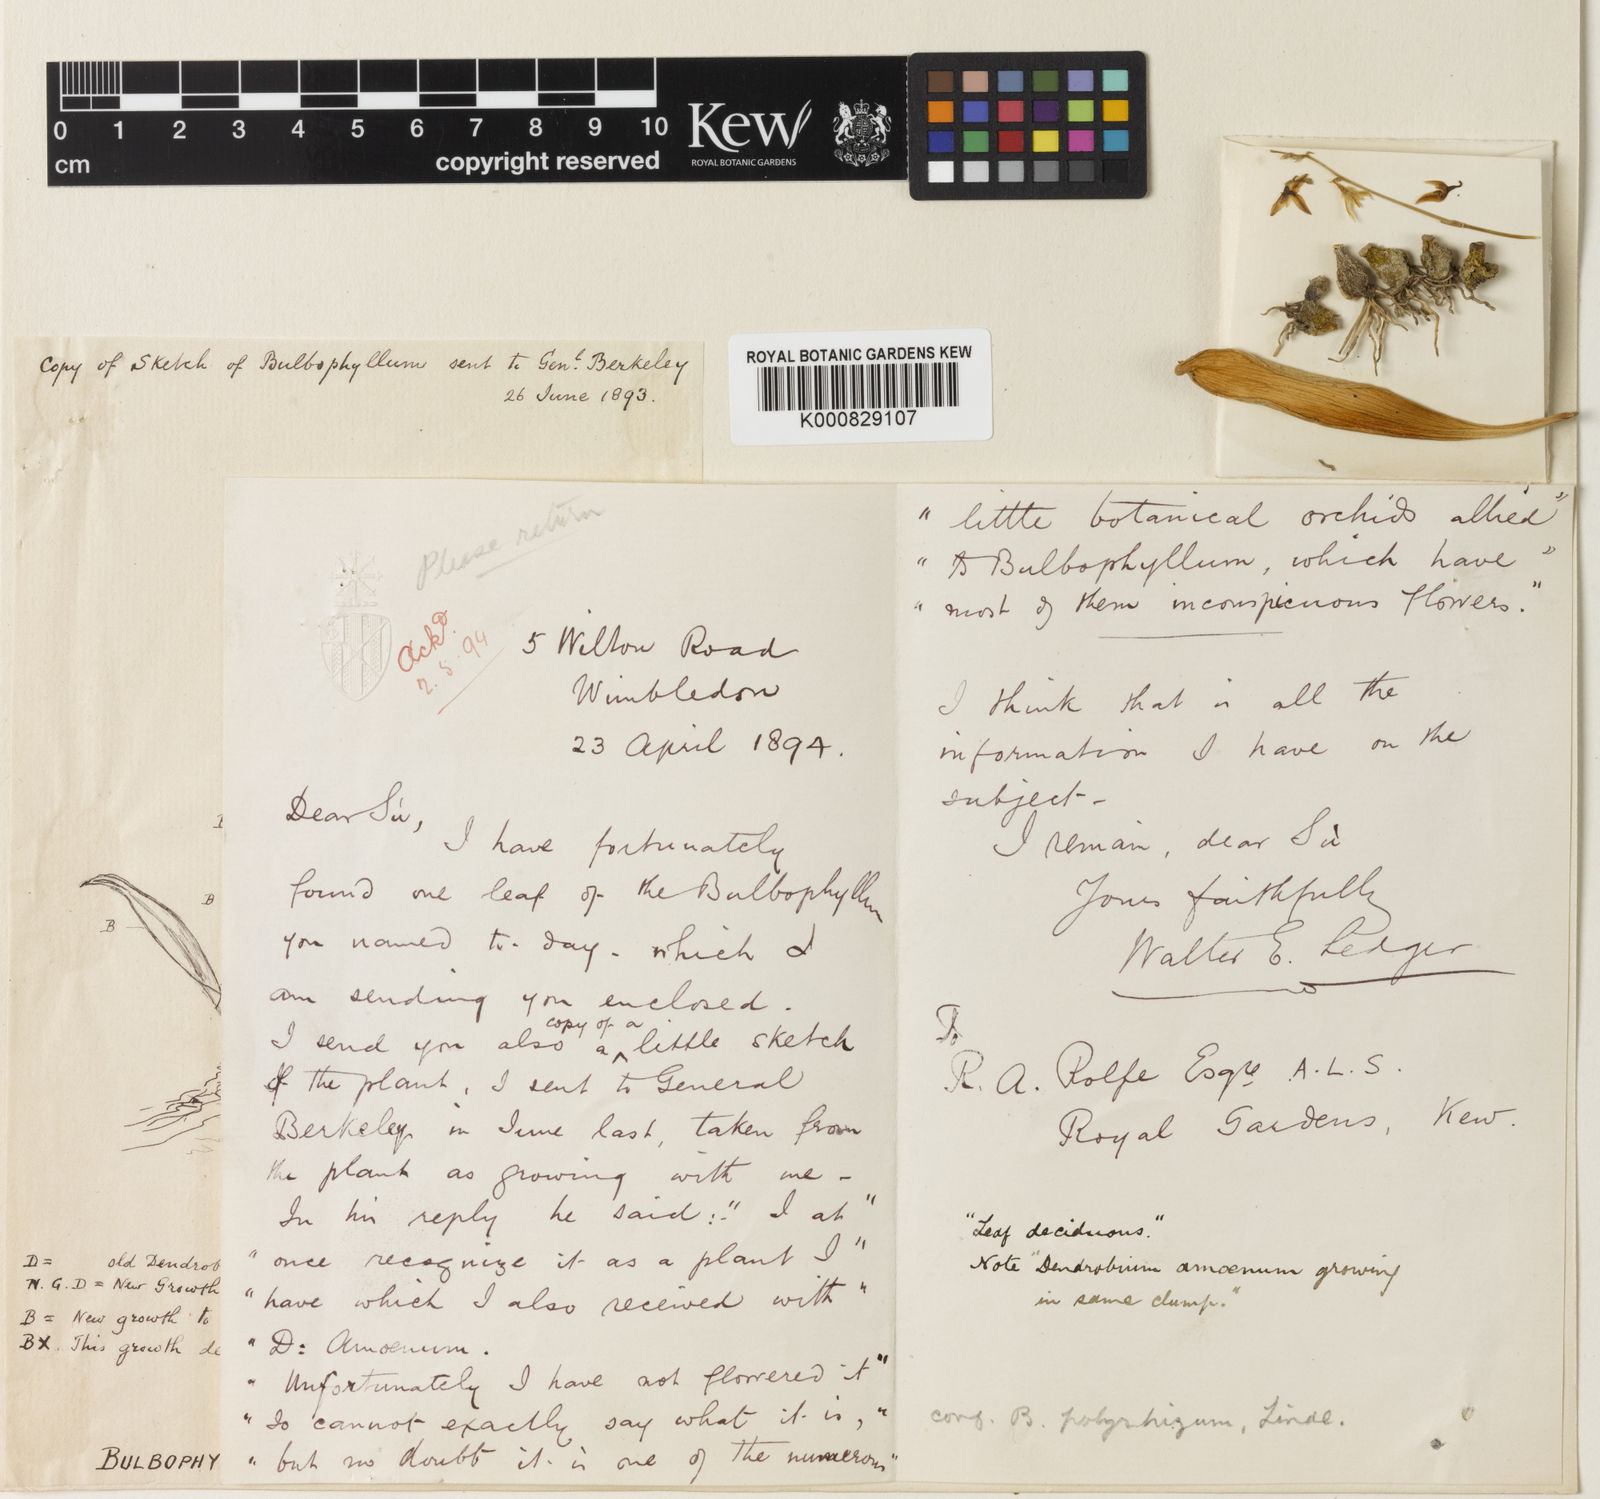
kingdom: Plantae
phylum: Tracheophyta
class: Liliopsida
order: Asparagales
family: Orchidaceae
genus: Bulbophyllum
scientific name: Bulbophyllum
